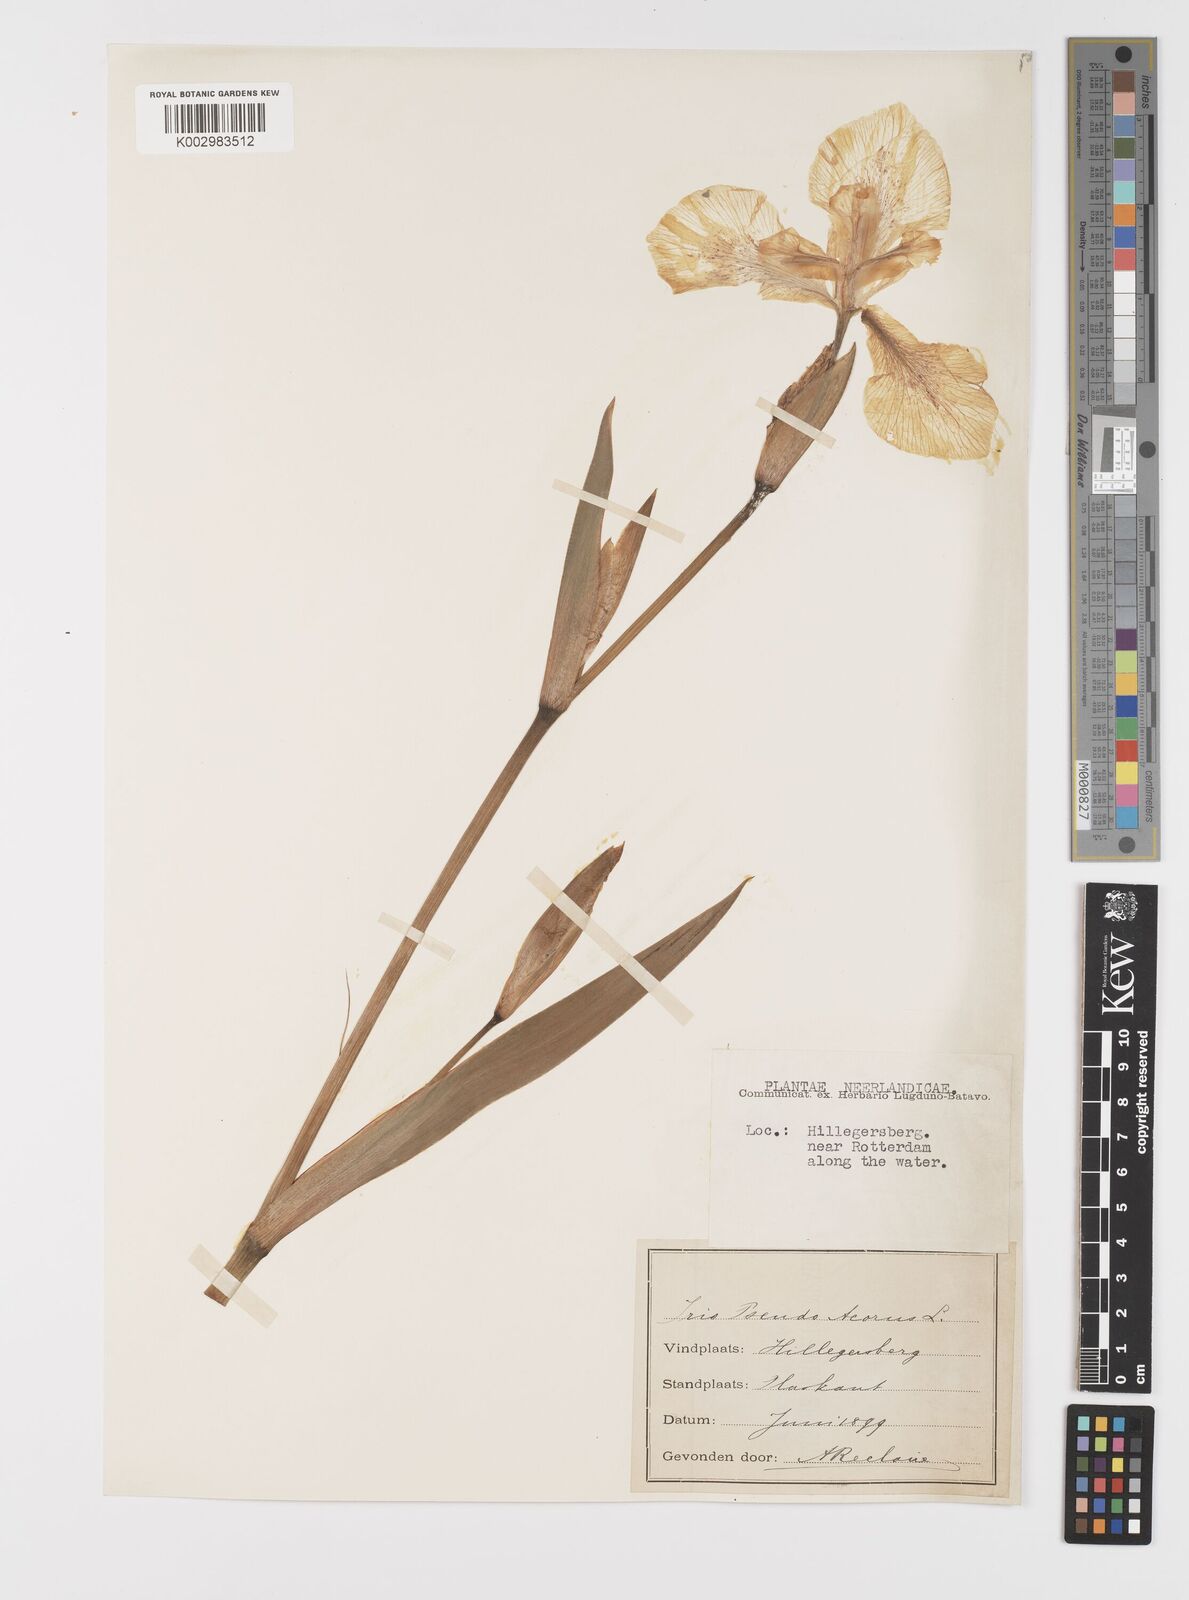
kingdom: Plantae
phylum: Tracheophyta
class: Liliopsida
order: Asparagales
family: Iridaceae
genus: Iris
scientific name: Iris pseudacorus
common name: Yellow flag
